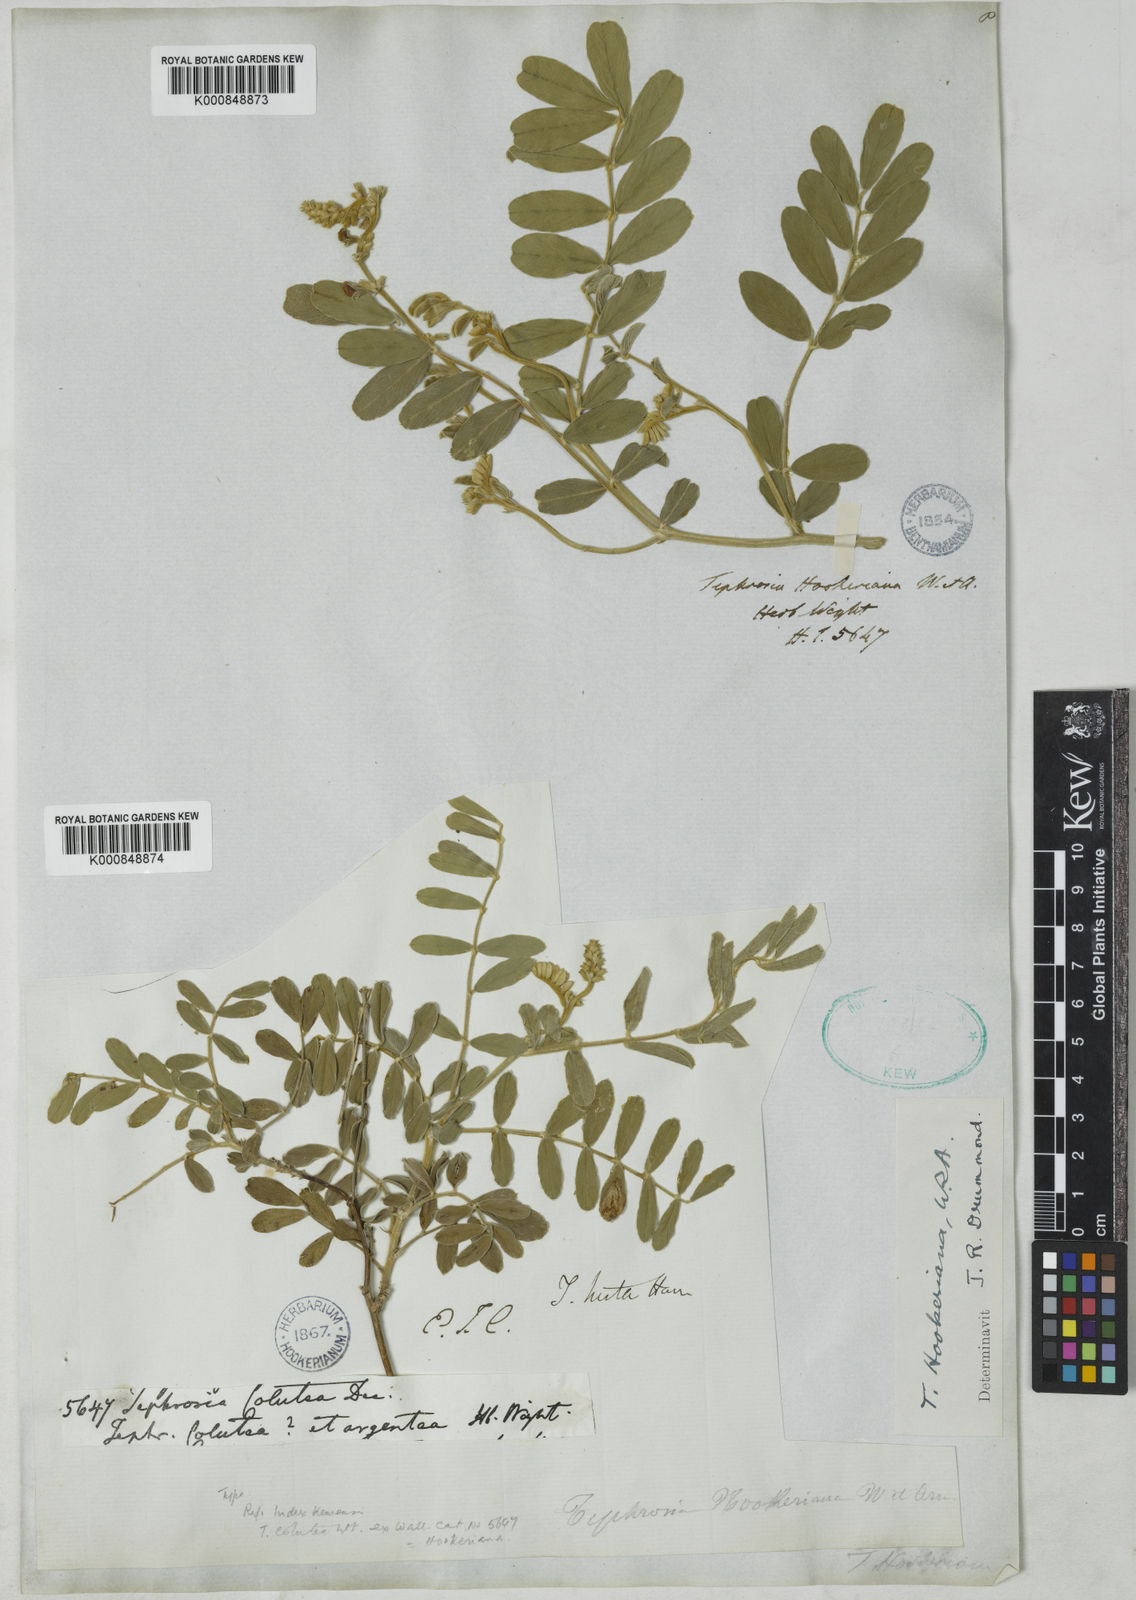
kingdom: Plantae
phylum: Tracheophyta
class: Magnoliopsida
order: Fabales
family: Fabaceae
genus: Tephrosia
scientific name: Tephrosia hookeriana
